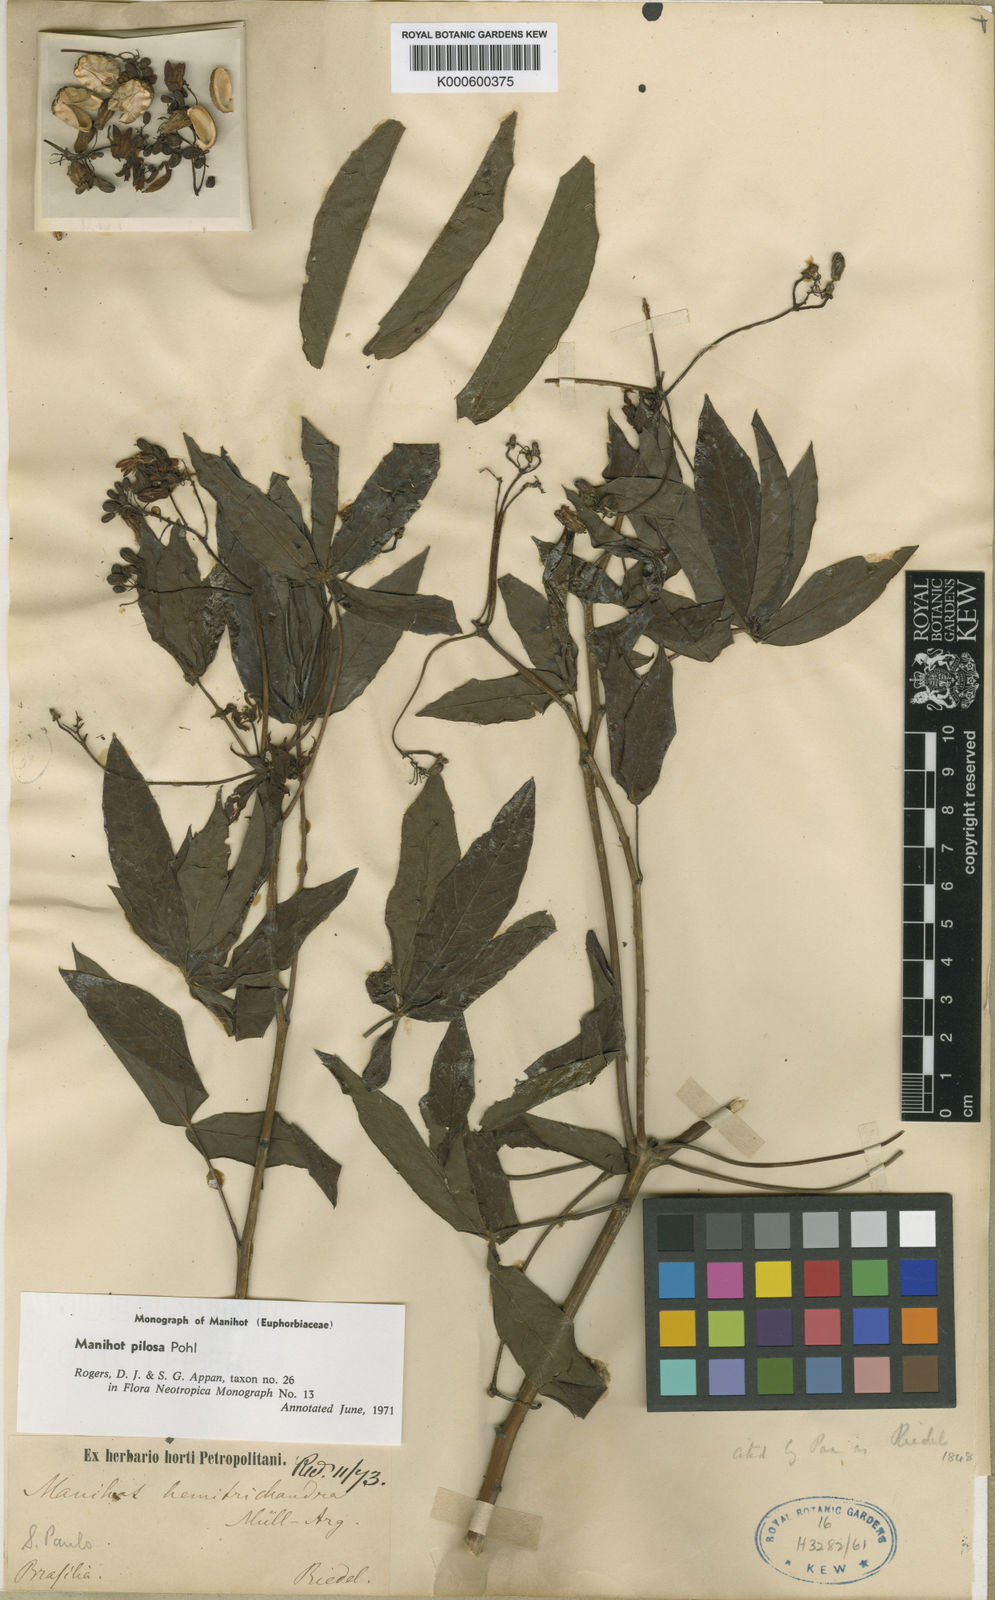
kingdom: Plantae
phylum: Tracheophyta
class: Magnoliopsida
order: Malpighiales
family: Euphorbiaceae
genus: Manihot
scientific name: Manihot pilosa
